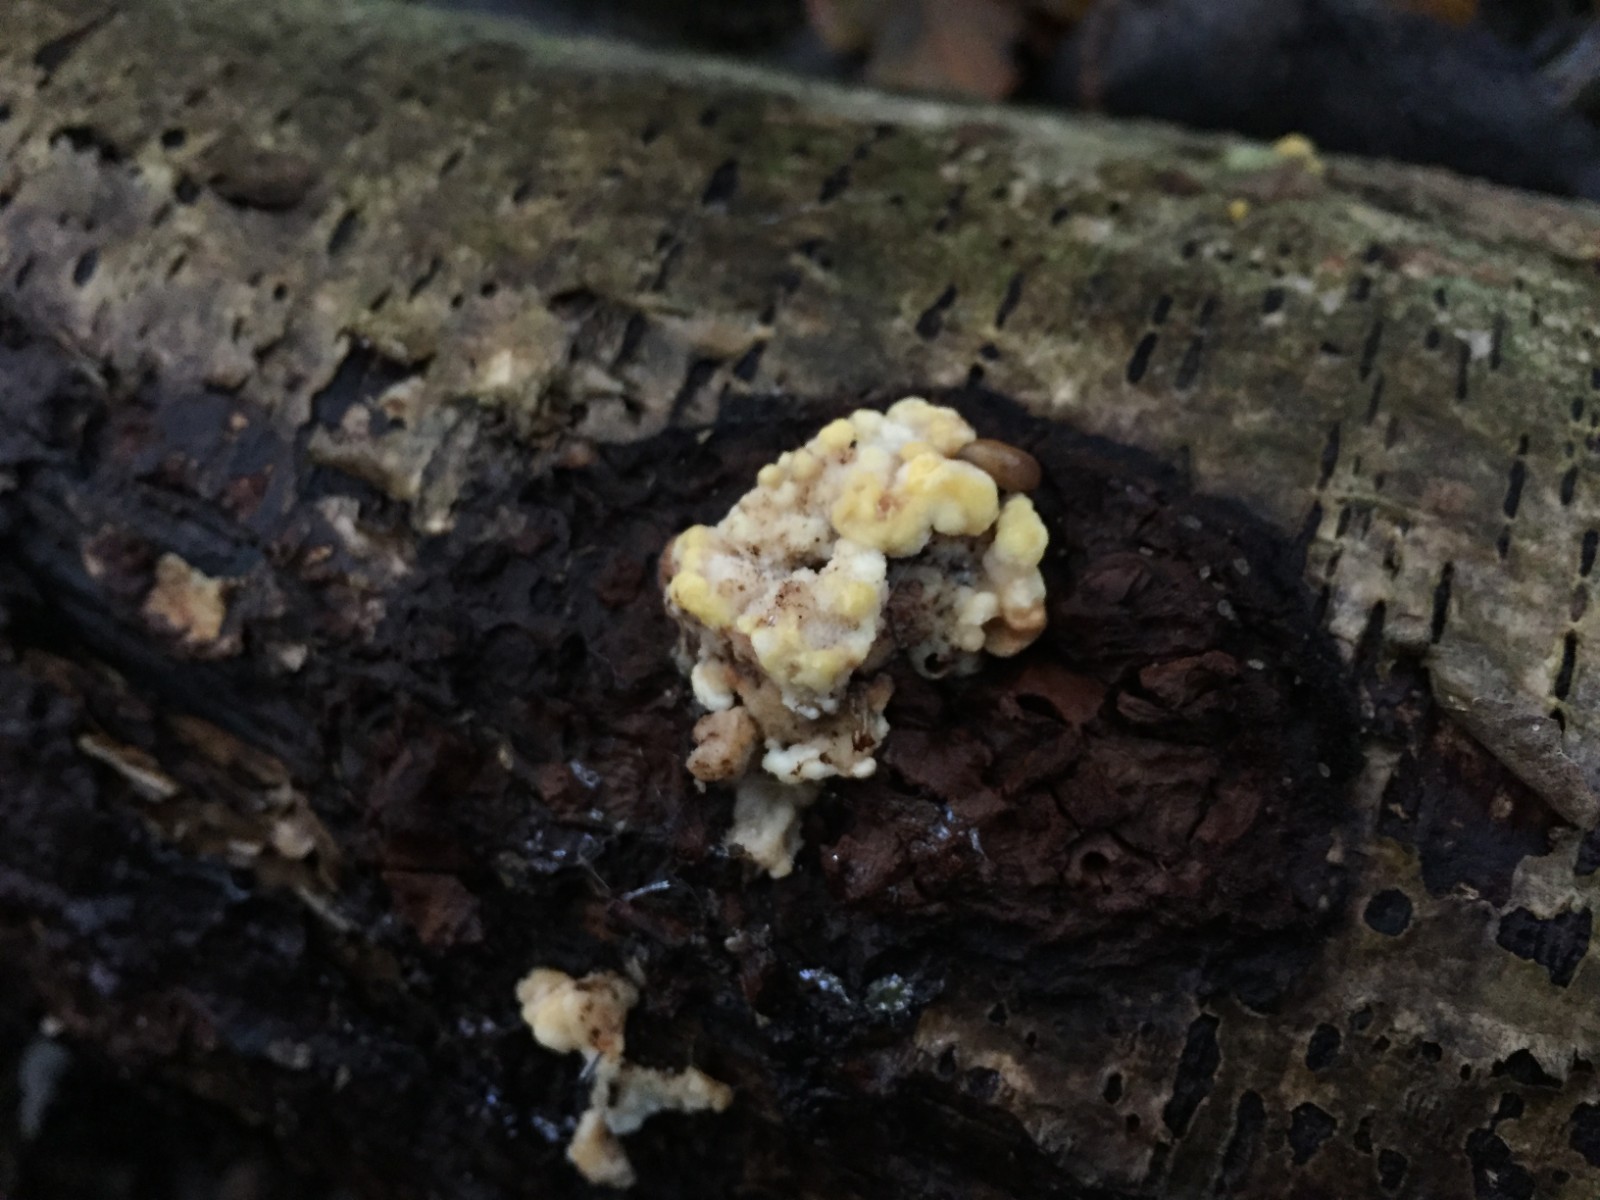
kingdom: Fungi
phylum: Basidiomycota
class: Agaricomycetes
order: Polyporales
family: Steccherinaceae
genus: Antrodiella
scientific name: Antrodiella serpula
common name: gulrandet elastikporesvamp
